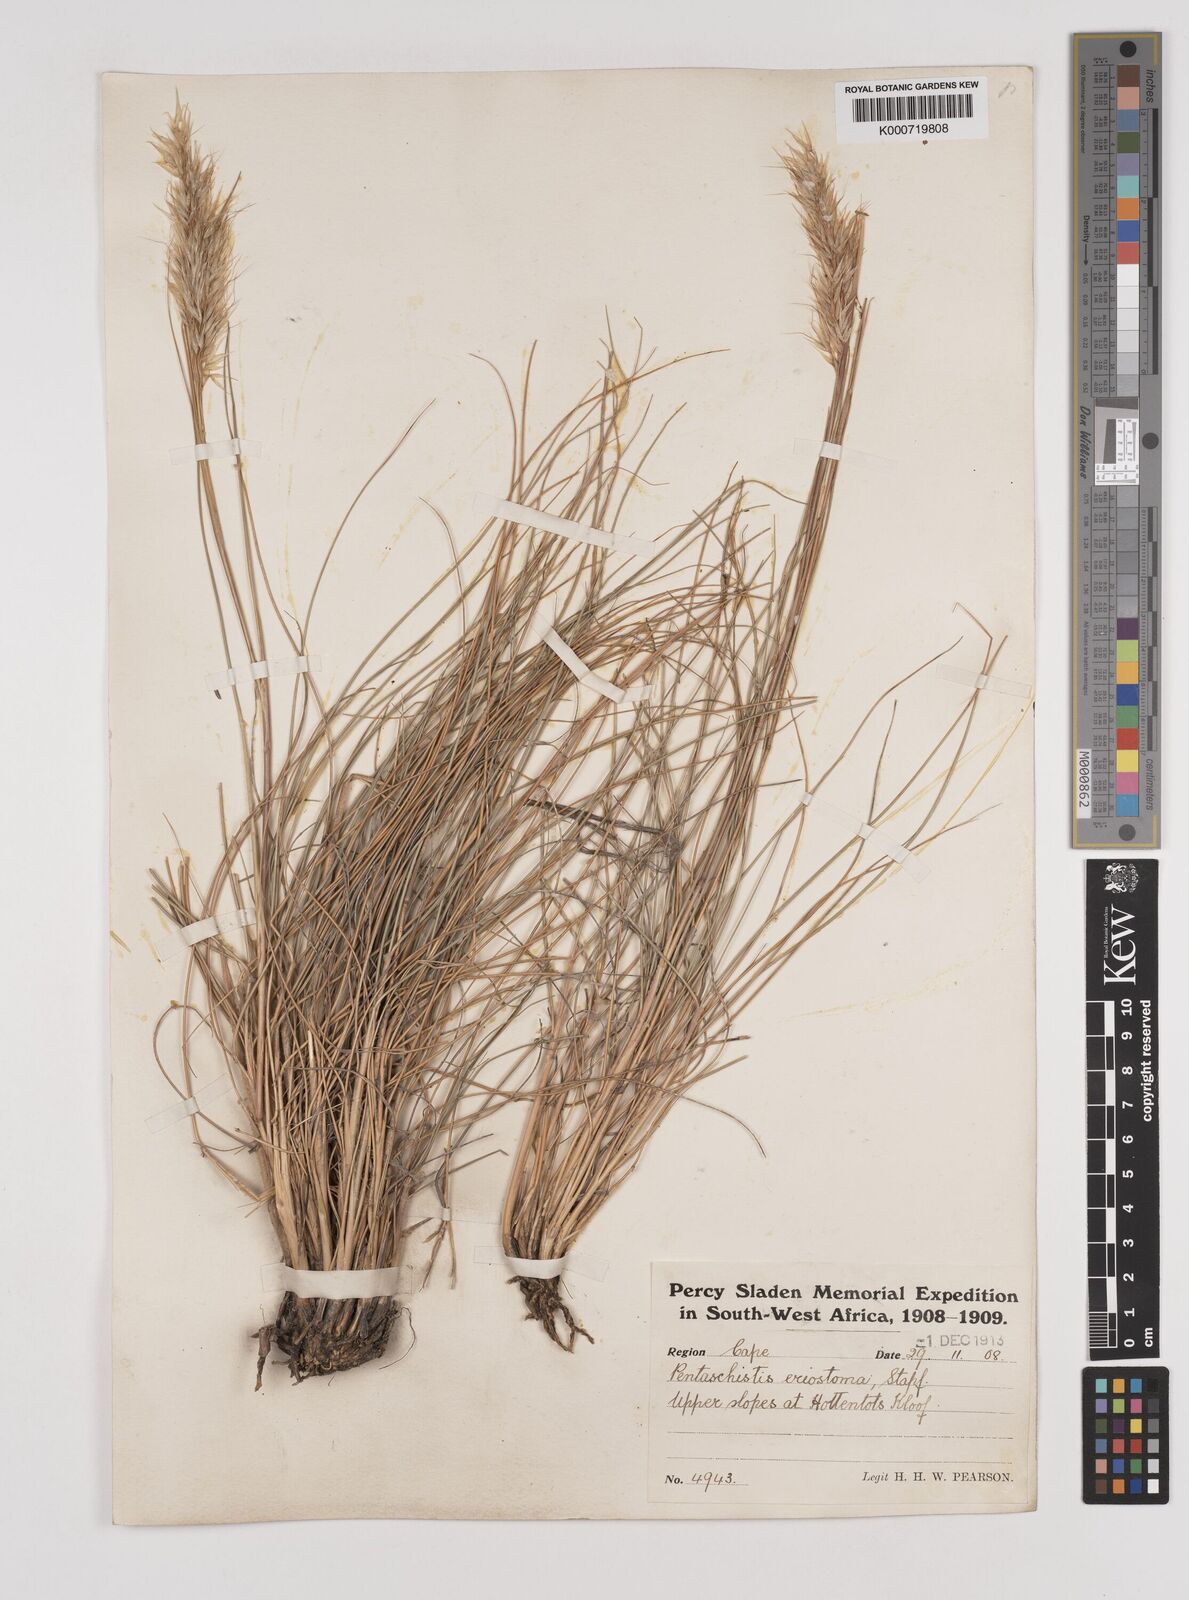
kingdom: Plantae
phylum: Tracheophyta
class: Liliopsida
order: Poales
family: Poaceae
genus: Pentameris
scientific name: Pentameris eriostoma
